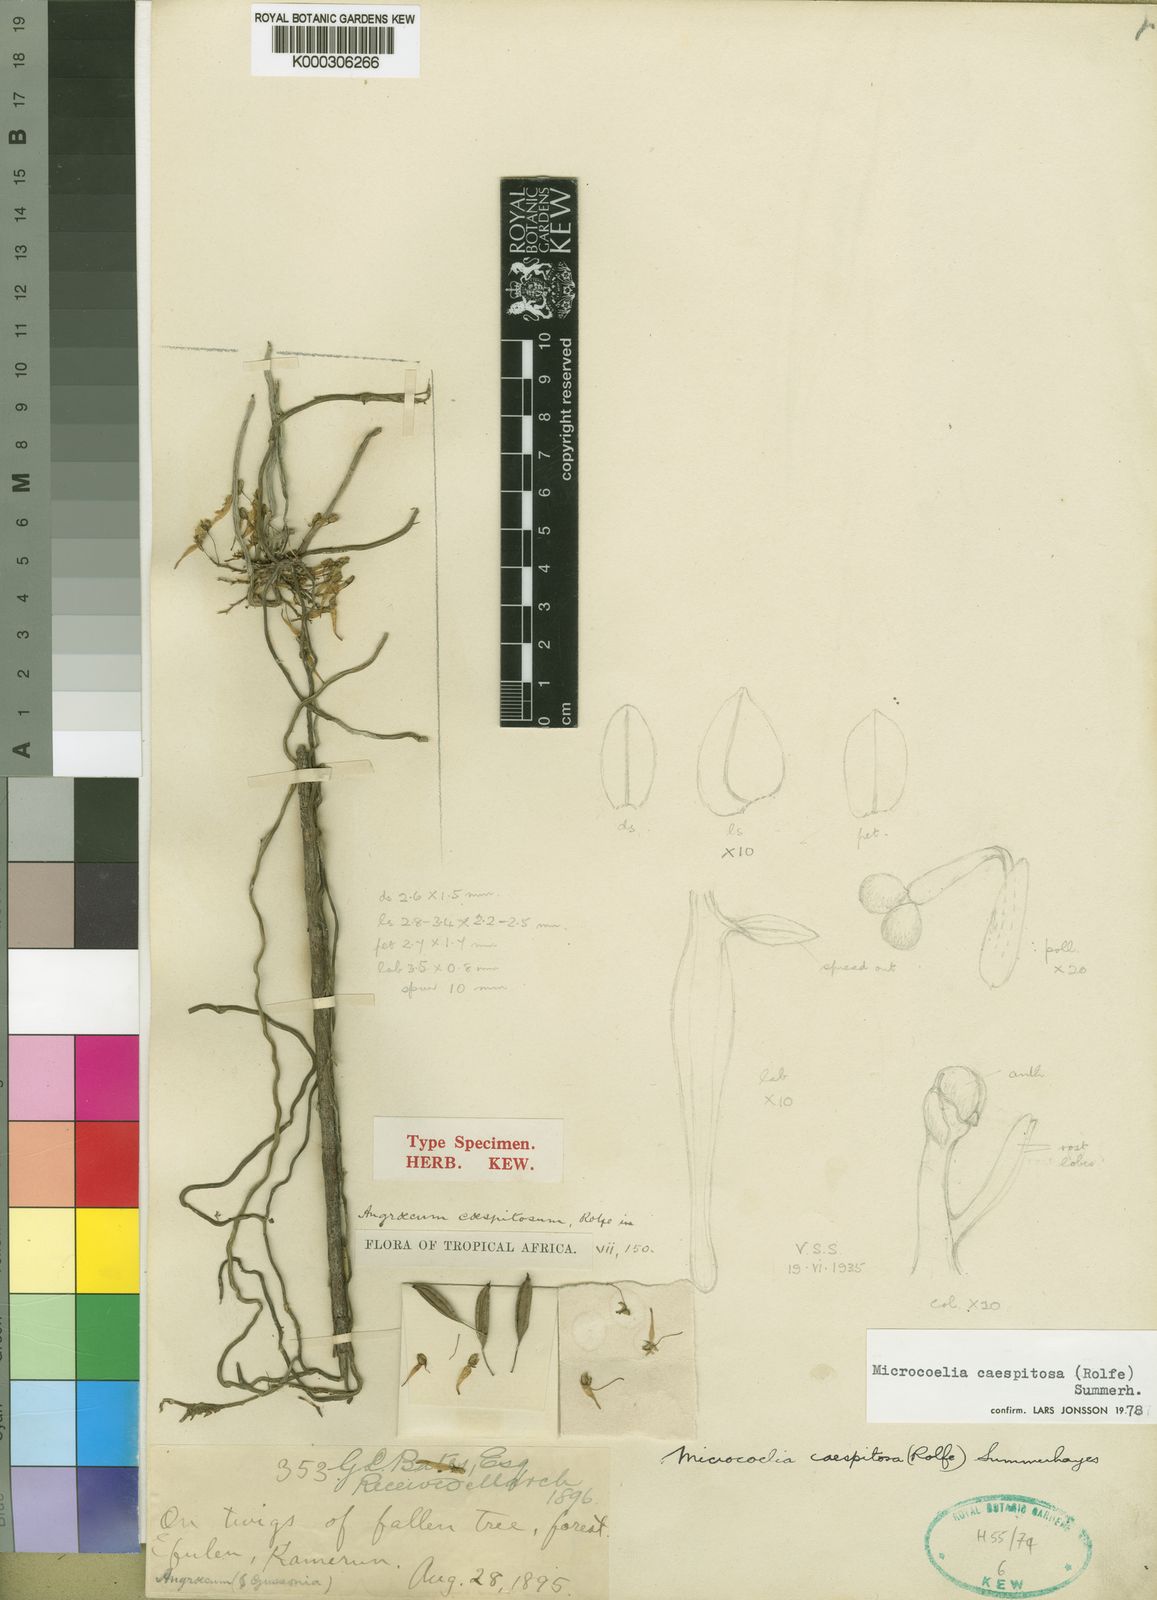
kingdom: Plantae
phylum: Tracheophyta
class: Liliopsida
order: Asparagales
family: Orchidaceae
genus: Microcoelia
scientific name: Microcoelia caespitosa
